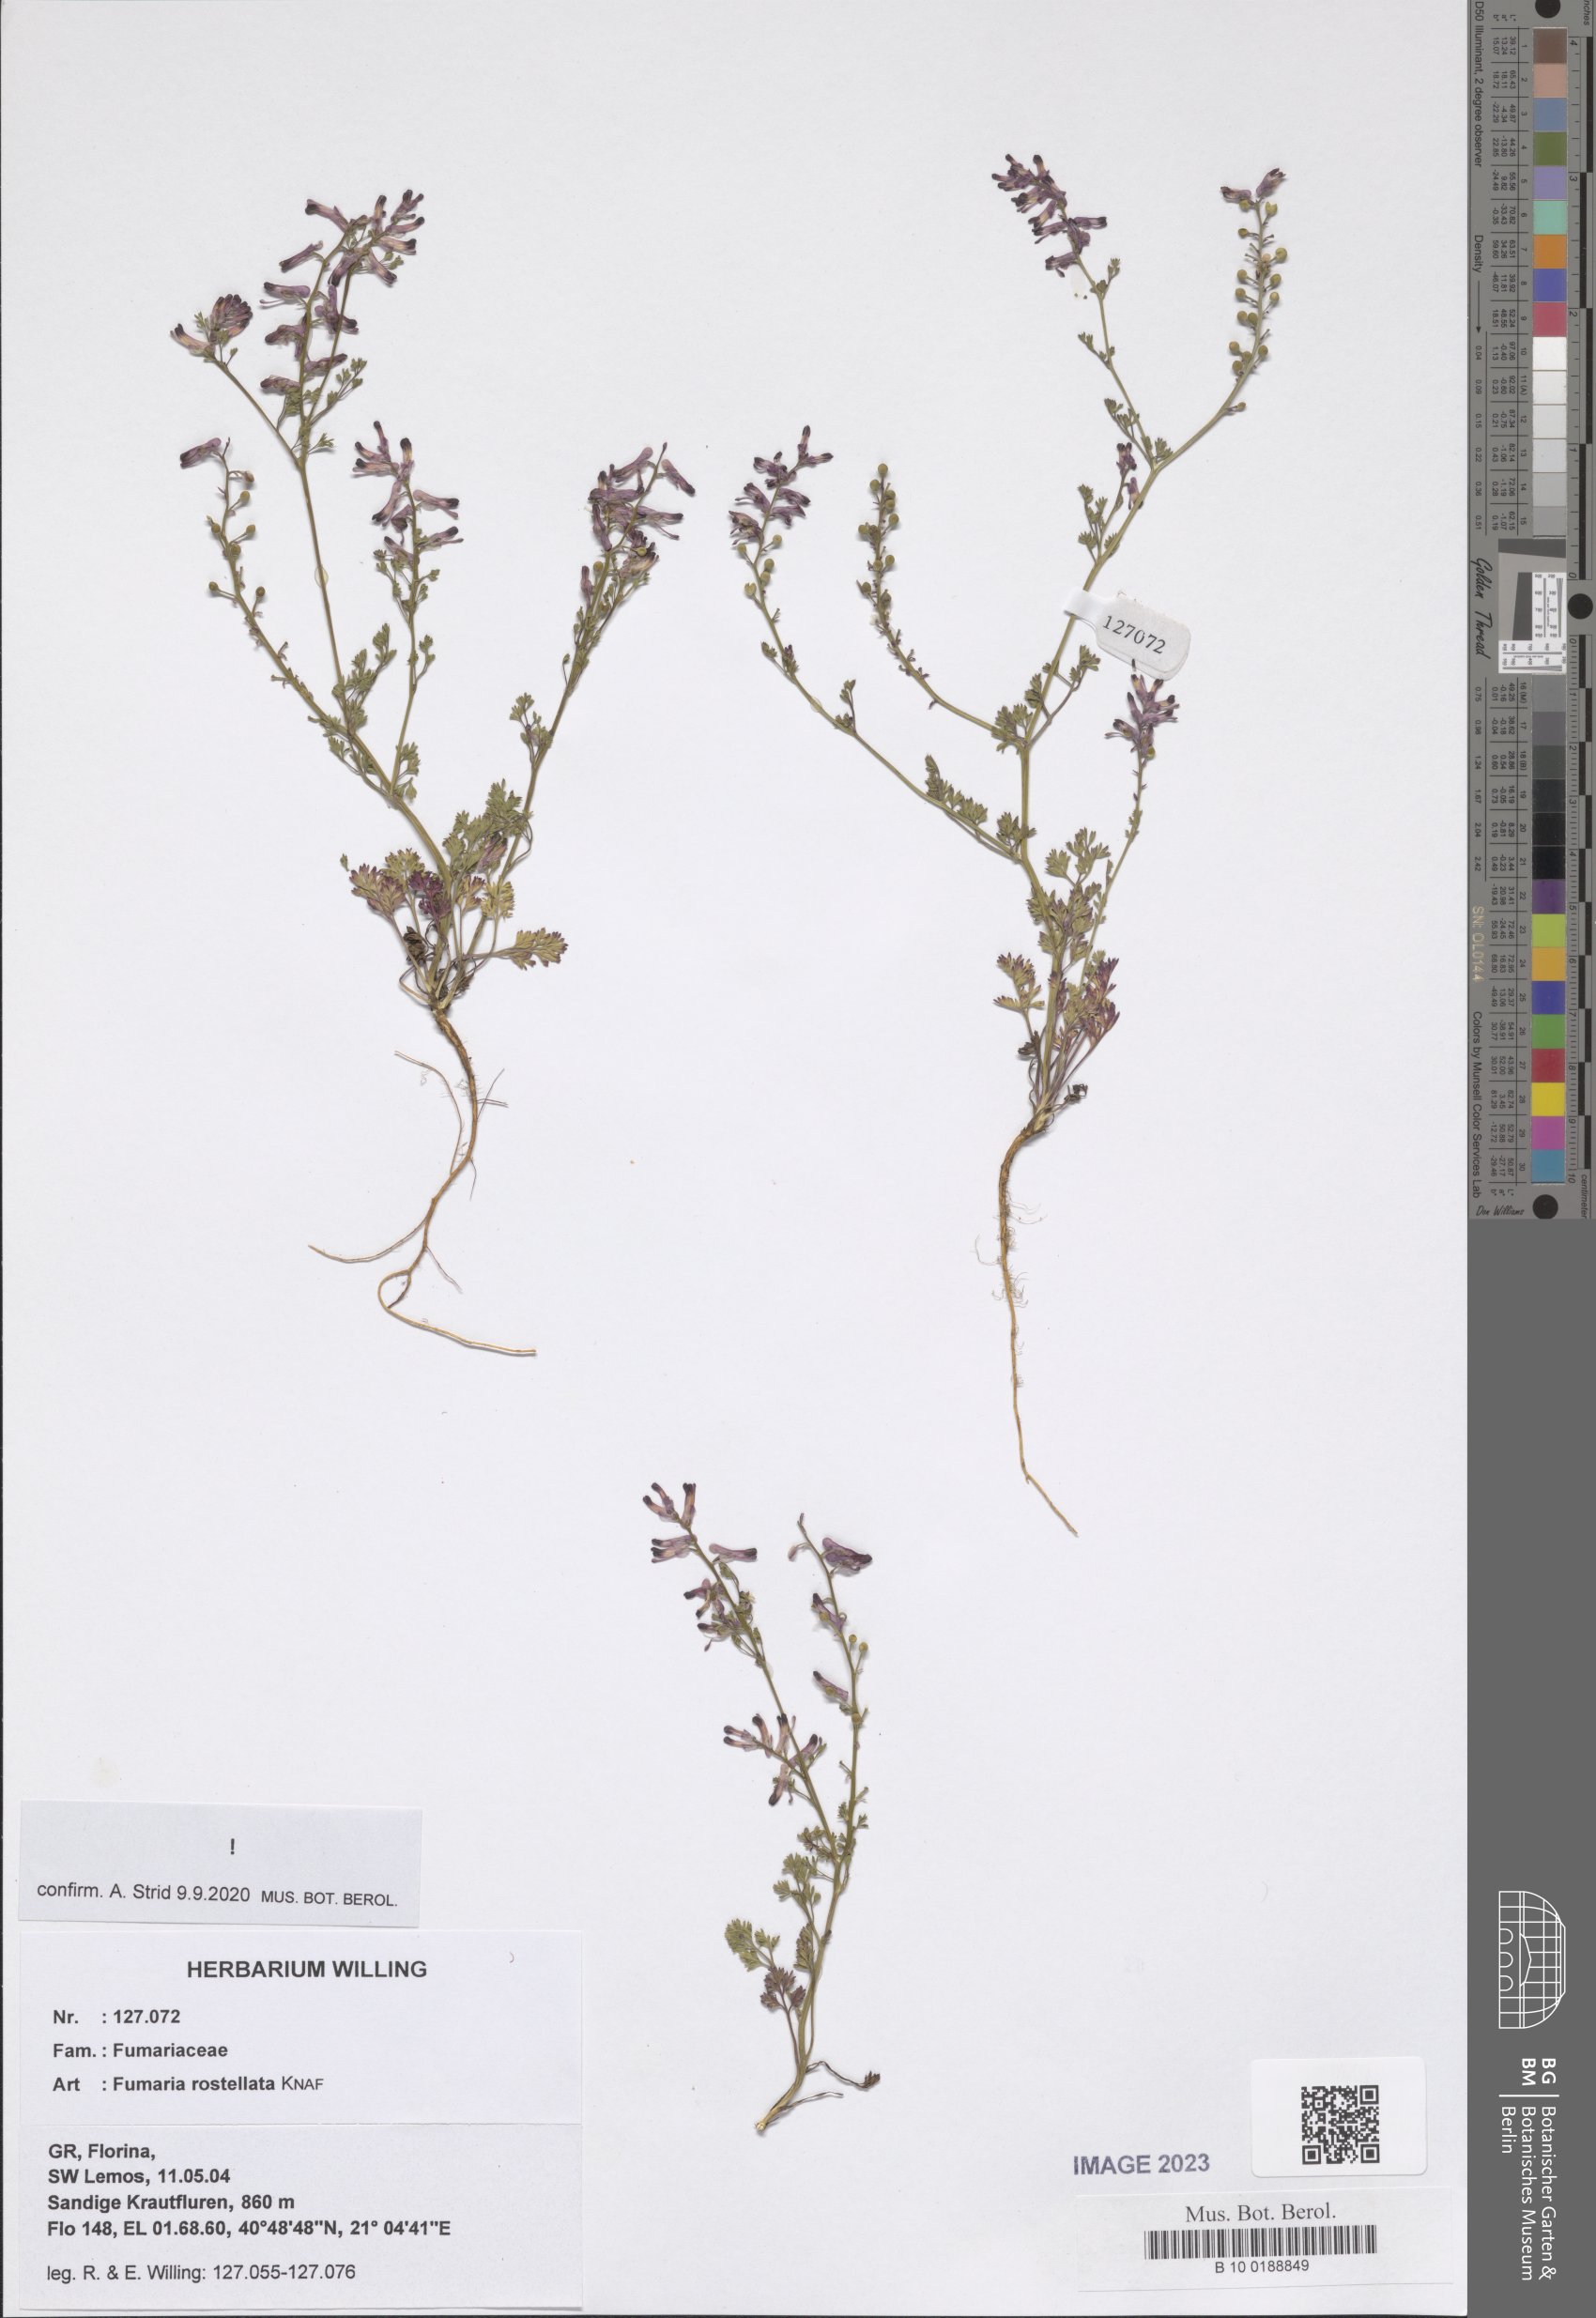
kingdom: Plantae
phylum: Tracheophyta
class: Magnoliopsida
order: Ranunculales
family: Papaveraceae
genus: Fumaria
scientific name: Fumaria rostellata
